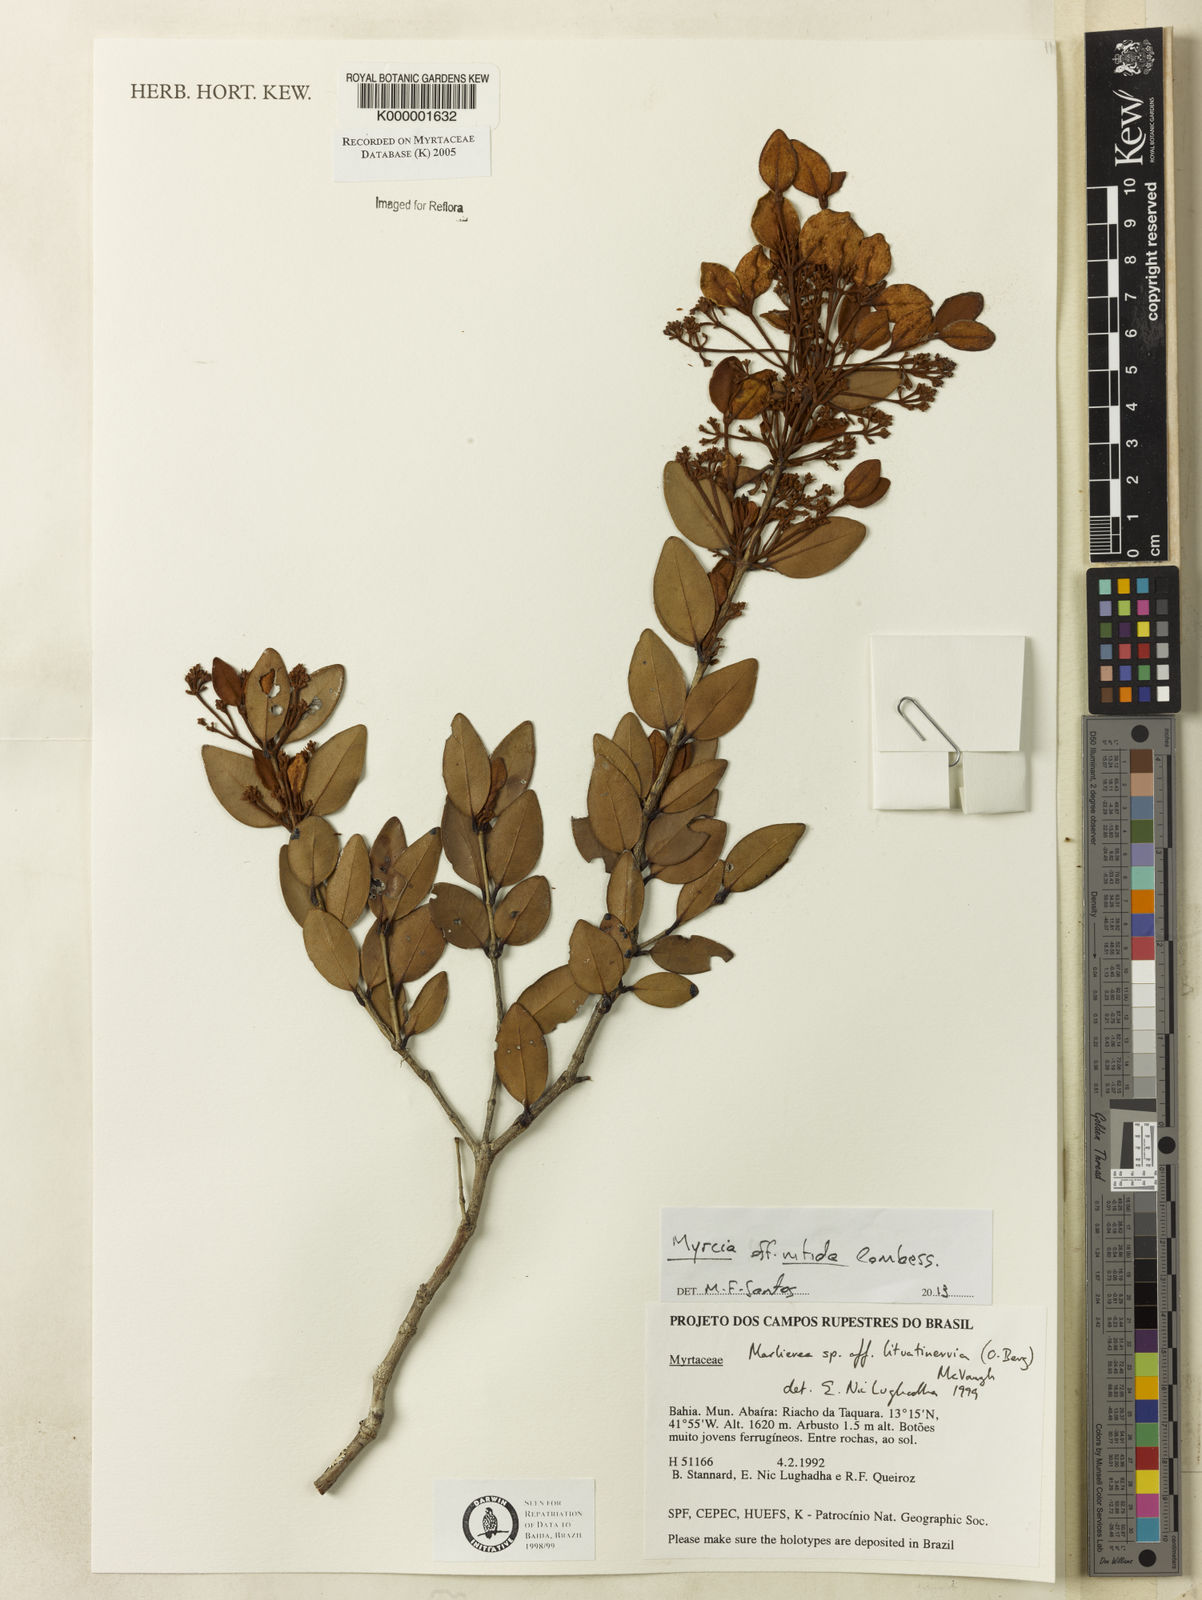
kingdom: Plantae
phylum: Tracheophyta
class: Magnoliopsida
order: Myrtales
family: Myrtaceae
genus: Myrcia
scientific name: Myrcia lituatinervia
